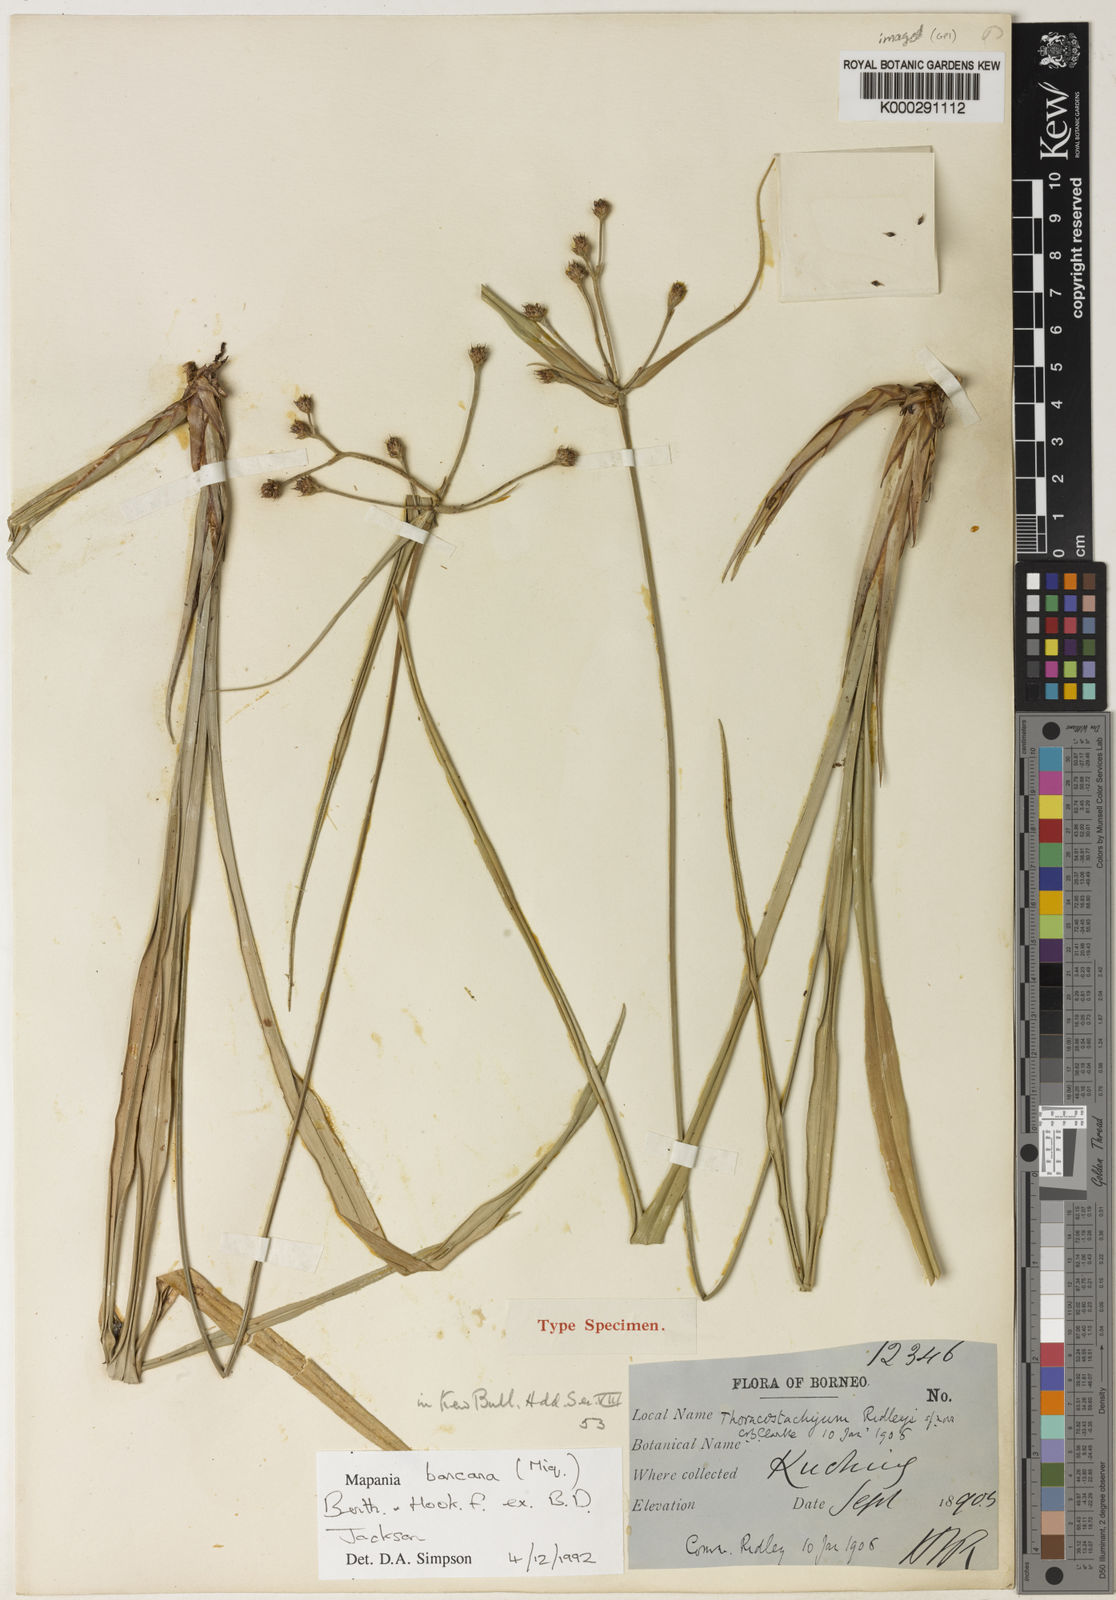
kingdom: Plantae
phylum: Tracheophyta
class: Liliopsida
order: Poales
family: Cyperaceae
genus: Mapania
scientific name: Mapania
